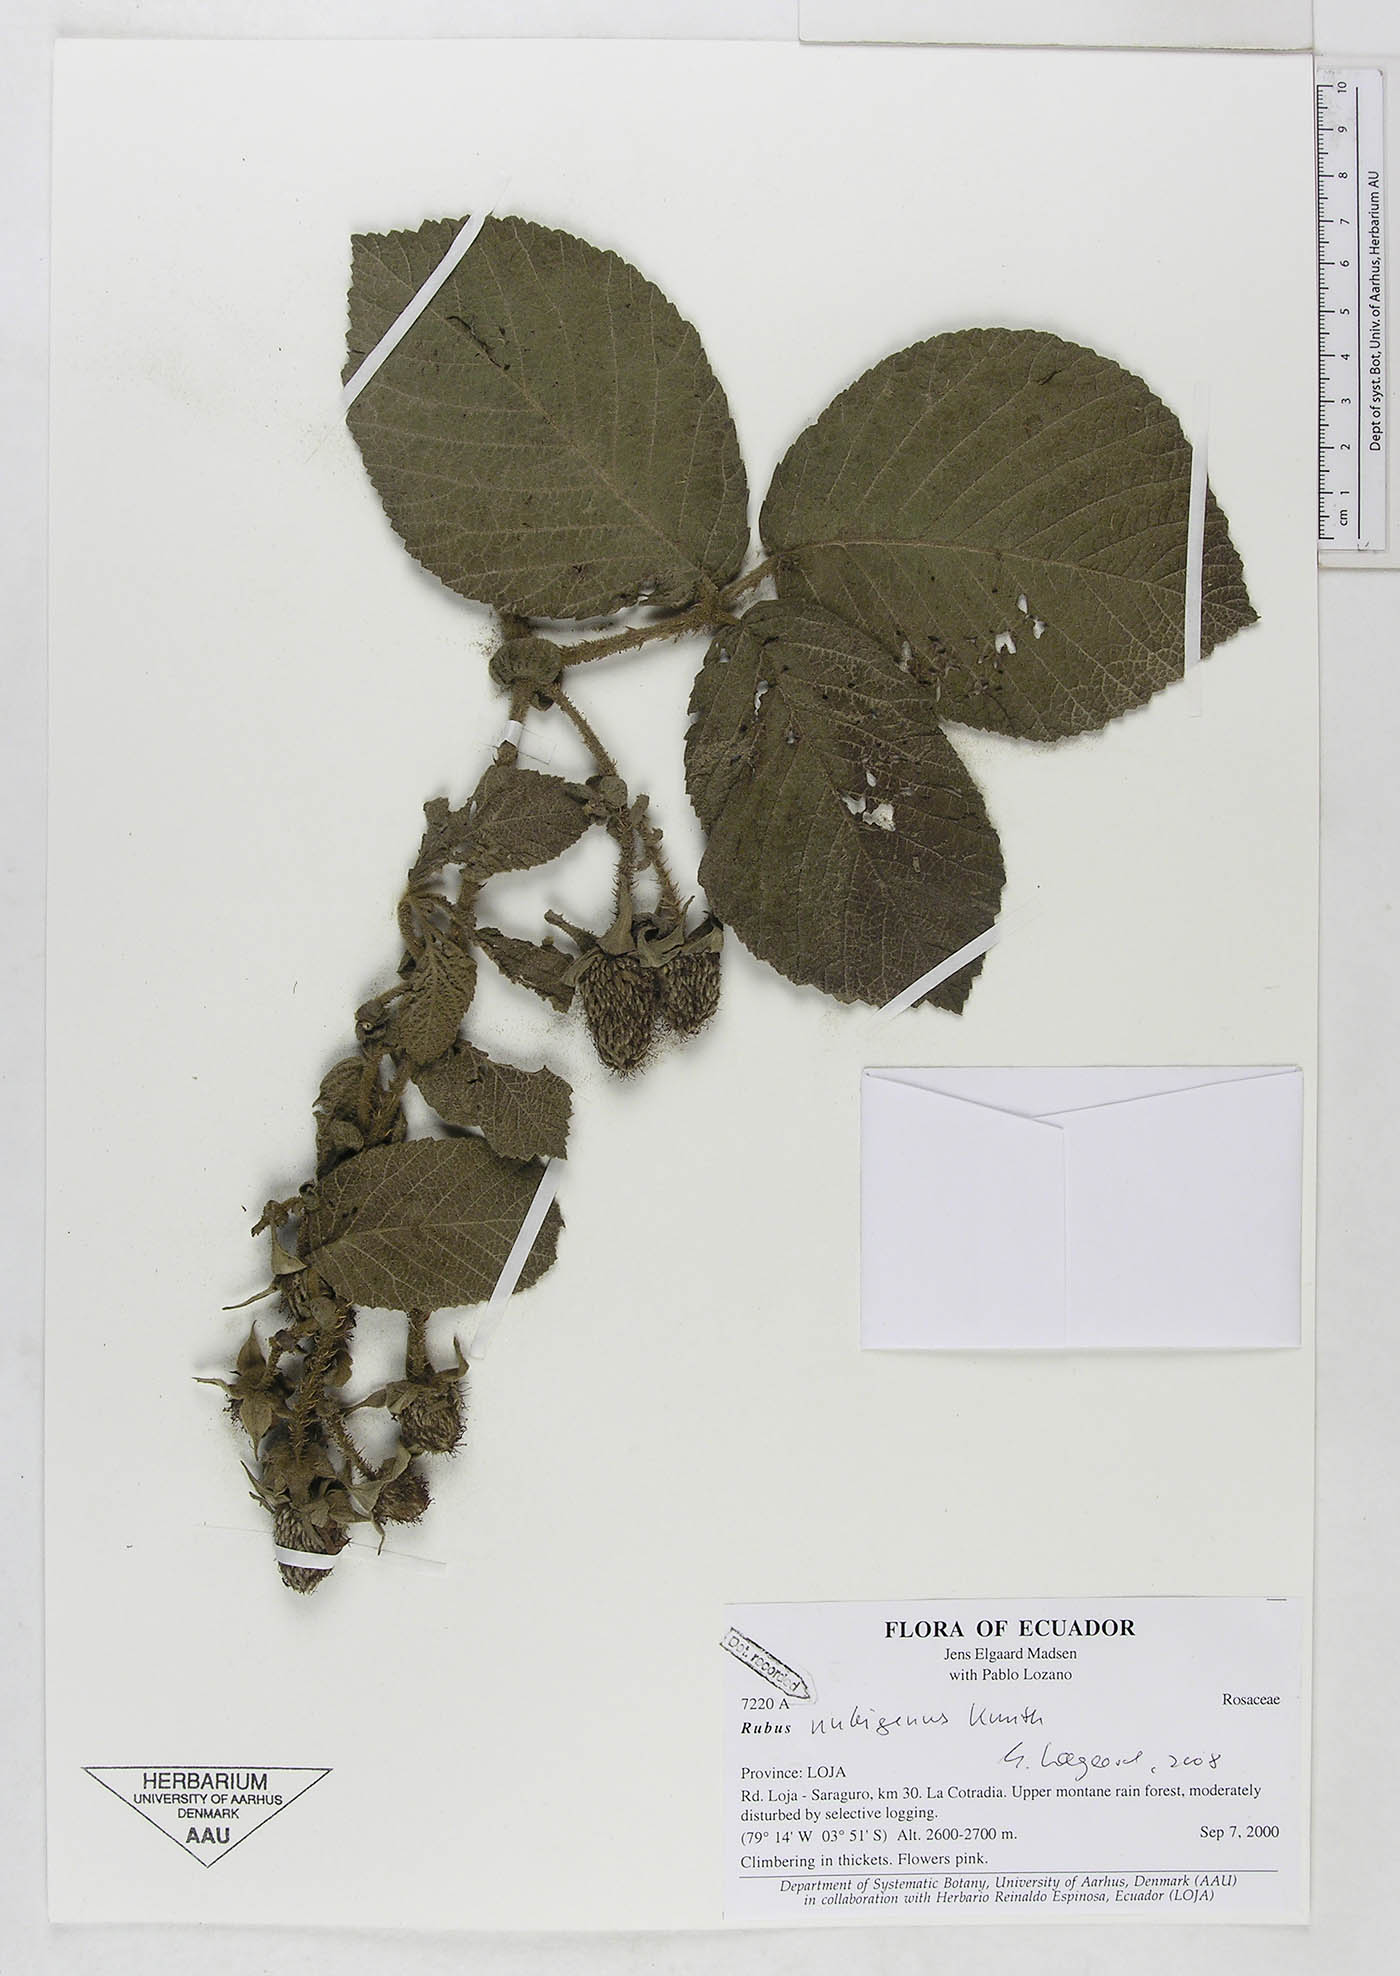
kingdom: Plantae
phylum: Tracheophyta
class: Magnoliopsida
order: Rosales
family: Rosaceae
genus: Rubus
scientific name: Rubus nubigenus
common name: Giant colombian blackberry
